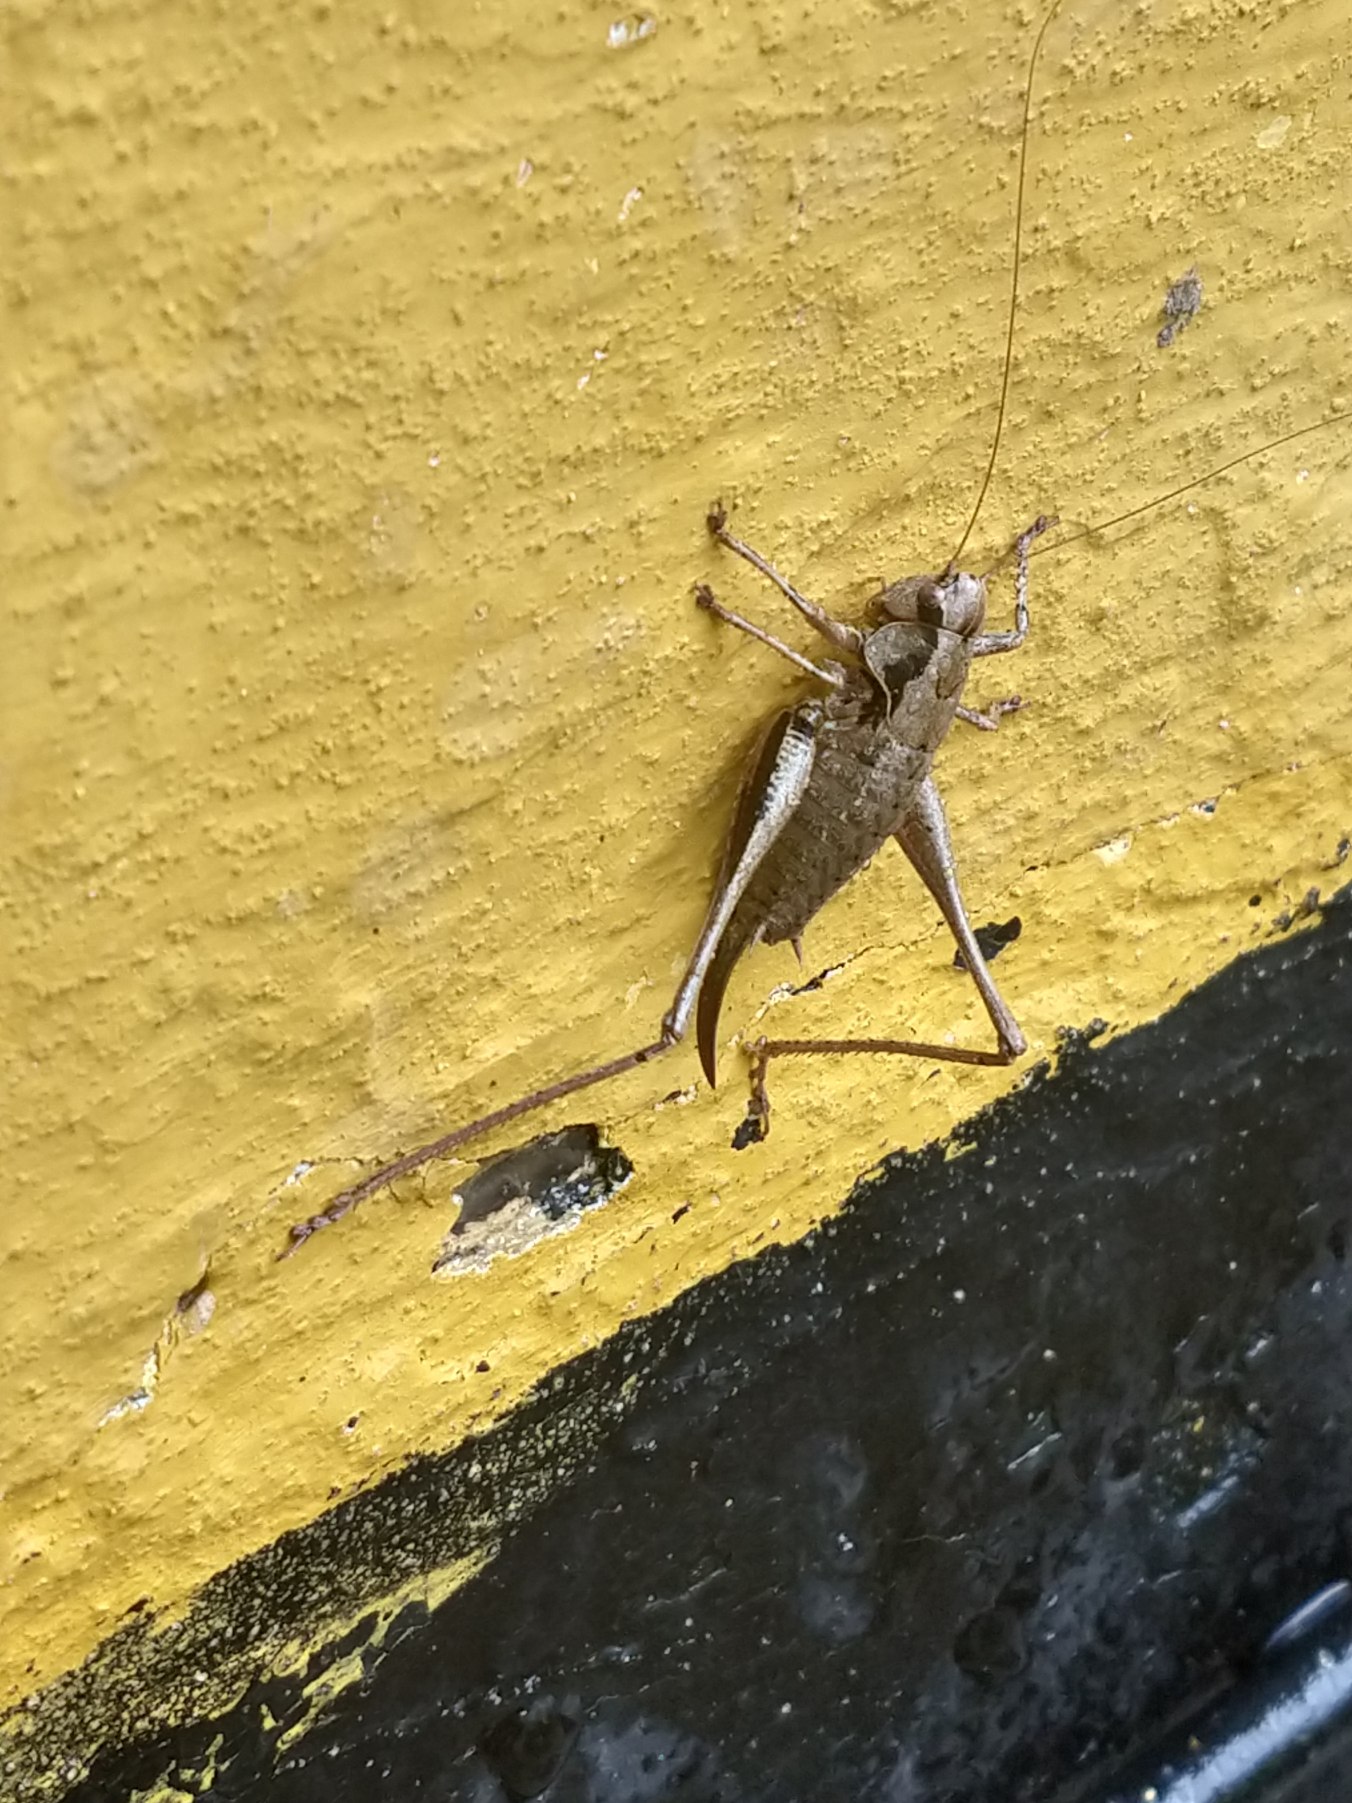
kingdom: Animalia
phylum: Arthropoda
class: Insecta
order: Orthoptera
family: Tettigoniidae
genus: Pholidoptera
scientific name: Pholidoptera griseoaptera
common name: Buskgræshoppe
